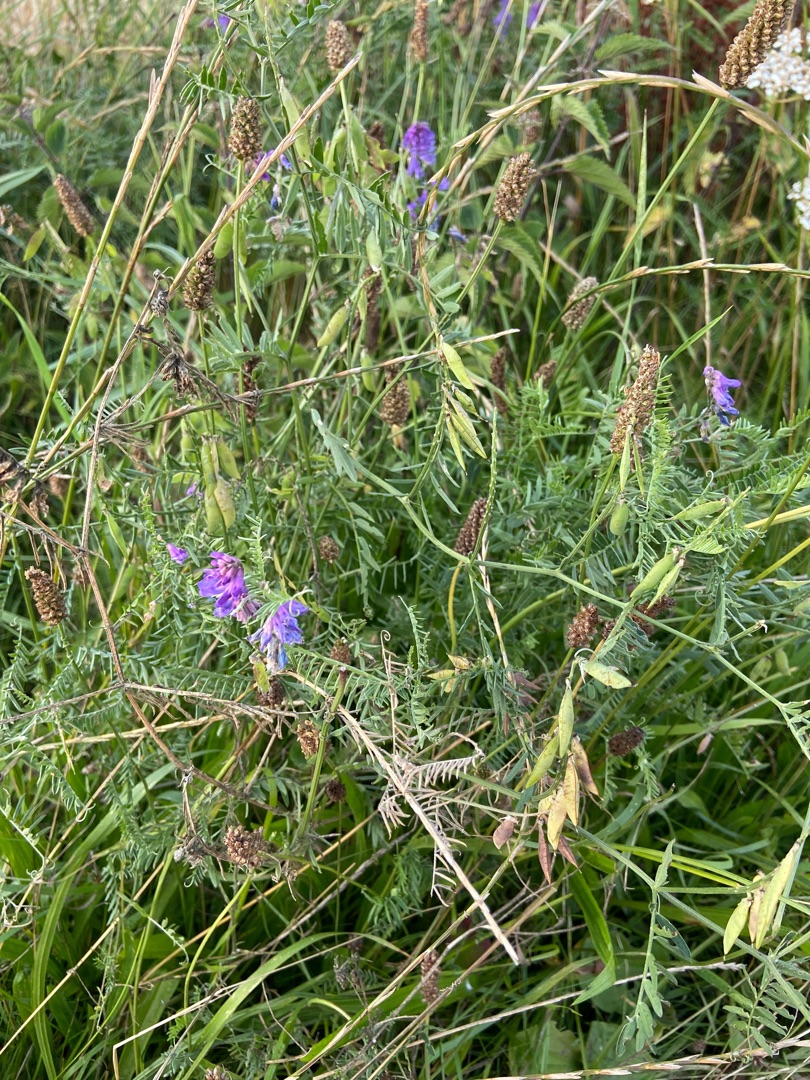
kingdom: Plantae
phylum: Tracheophyta
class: Magnoliopsida
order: Fabales
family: Fabaceae
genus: Vicia
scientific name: Vicia cracca
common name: Muse-vikke
